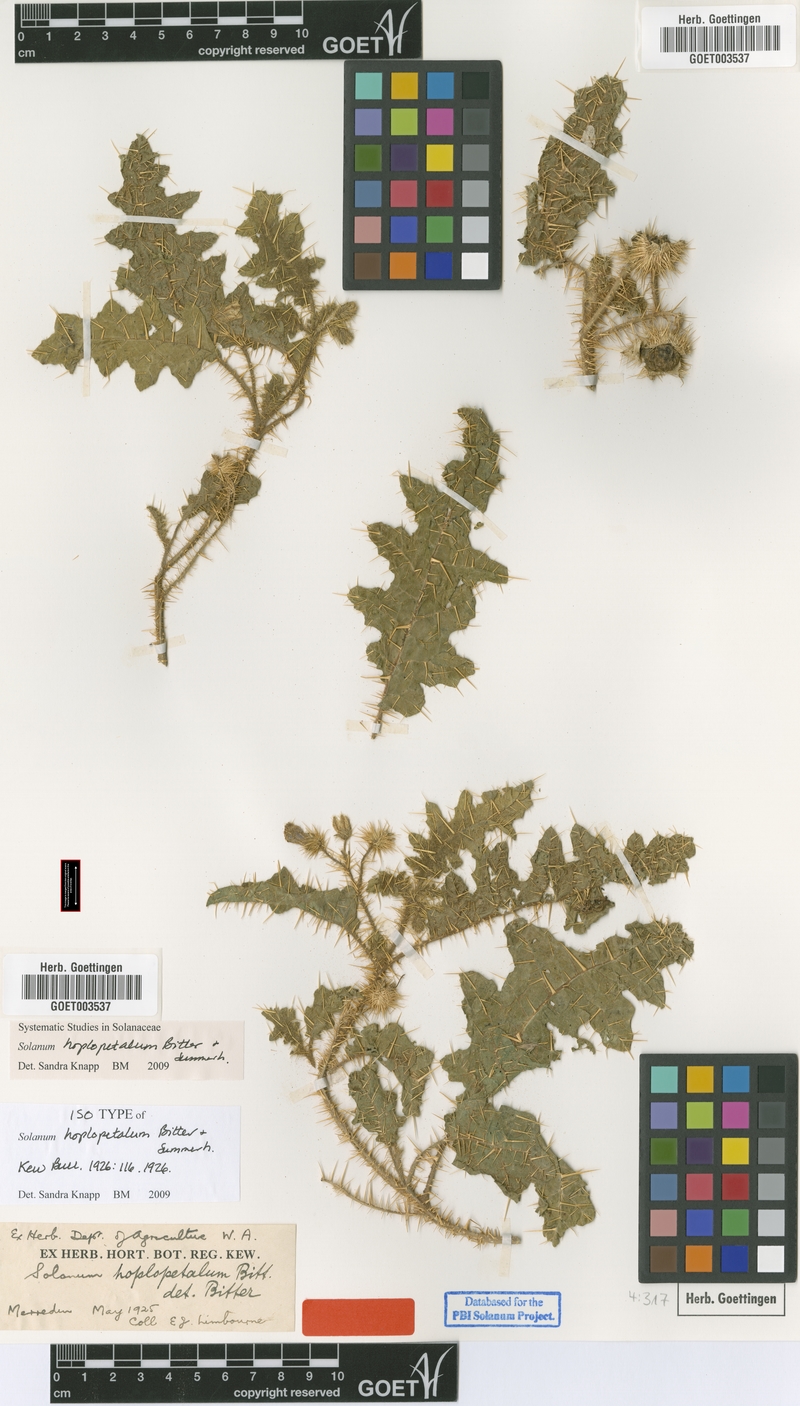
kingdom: Plantae
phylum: Tracheophyta
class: Magnoliopsida
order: Solanales
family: Solanaceae
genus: Solanum
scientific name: Solanum hoplopetalum
